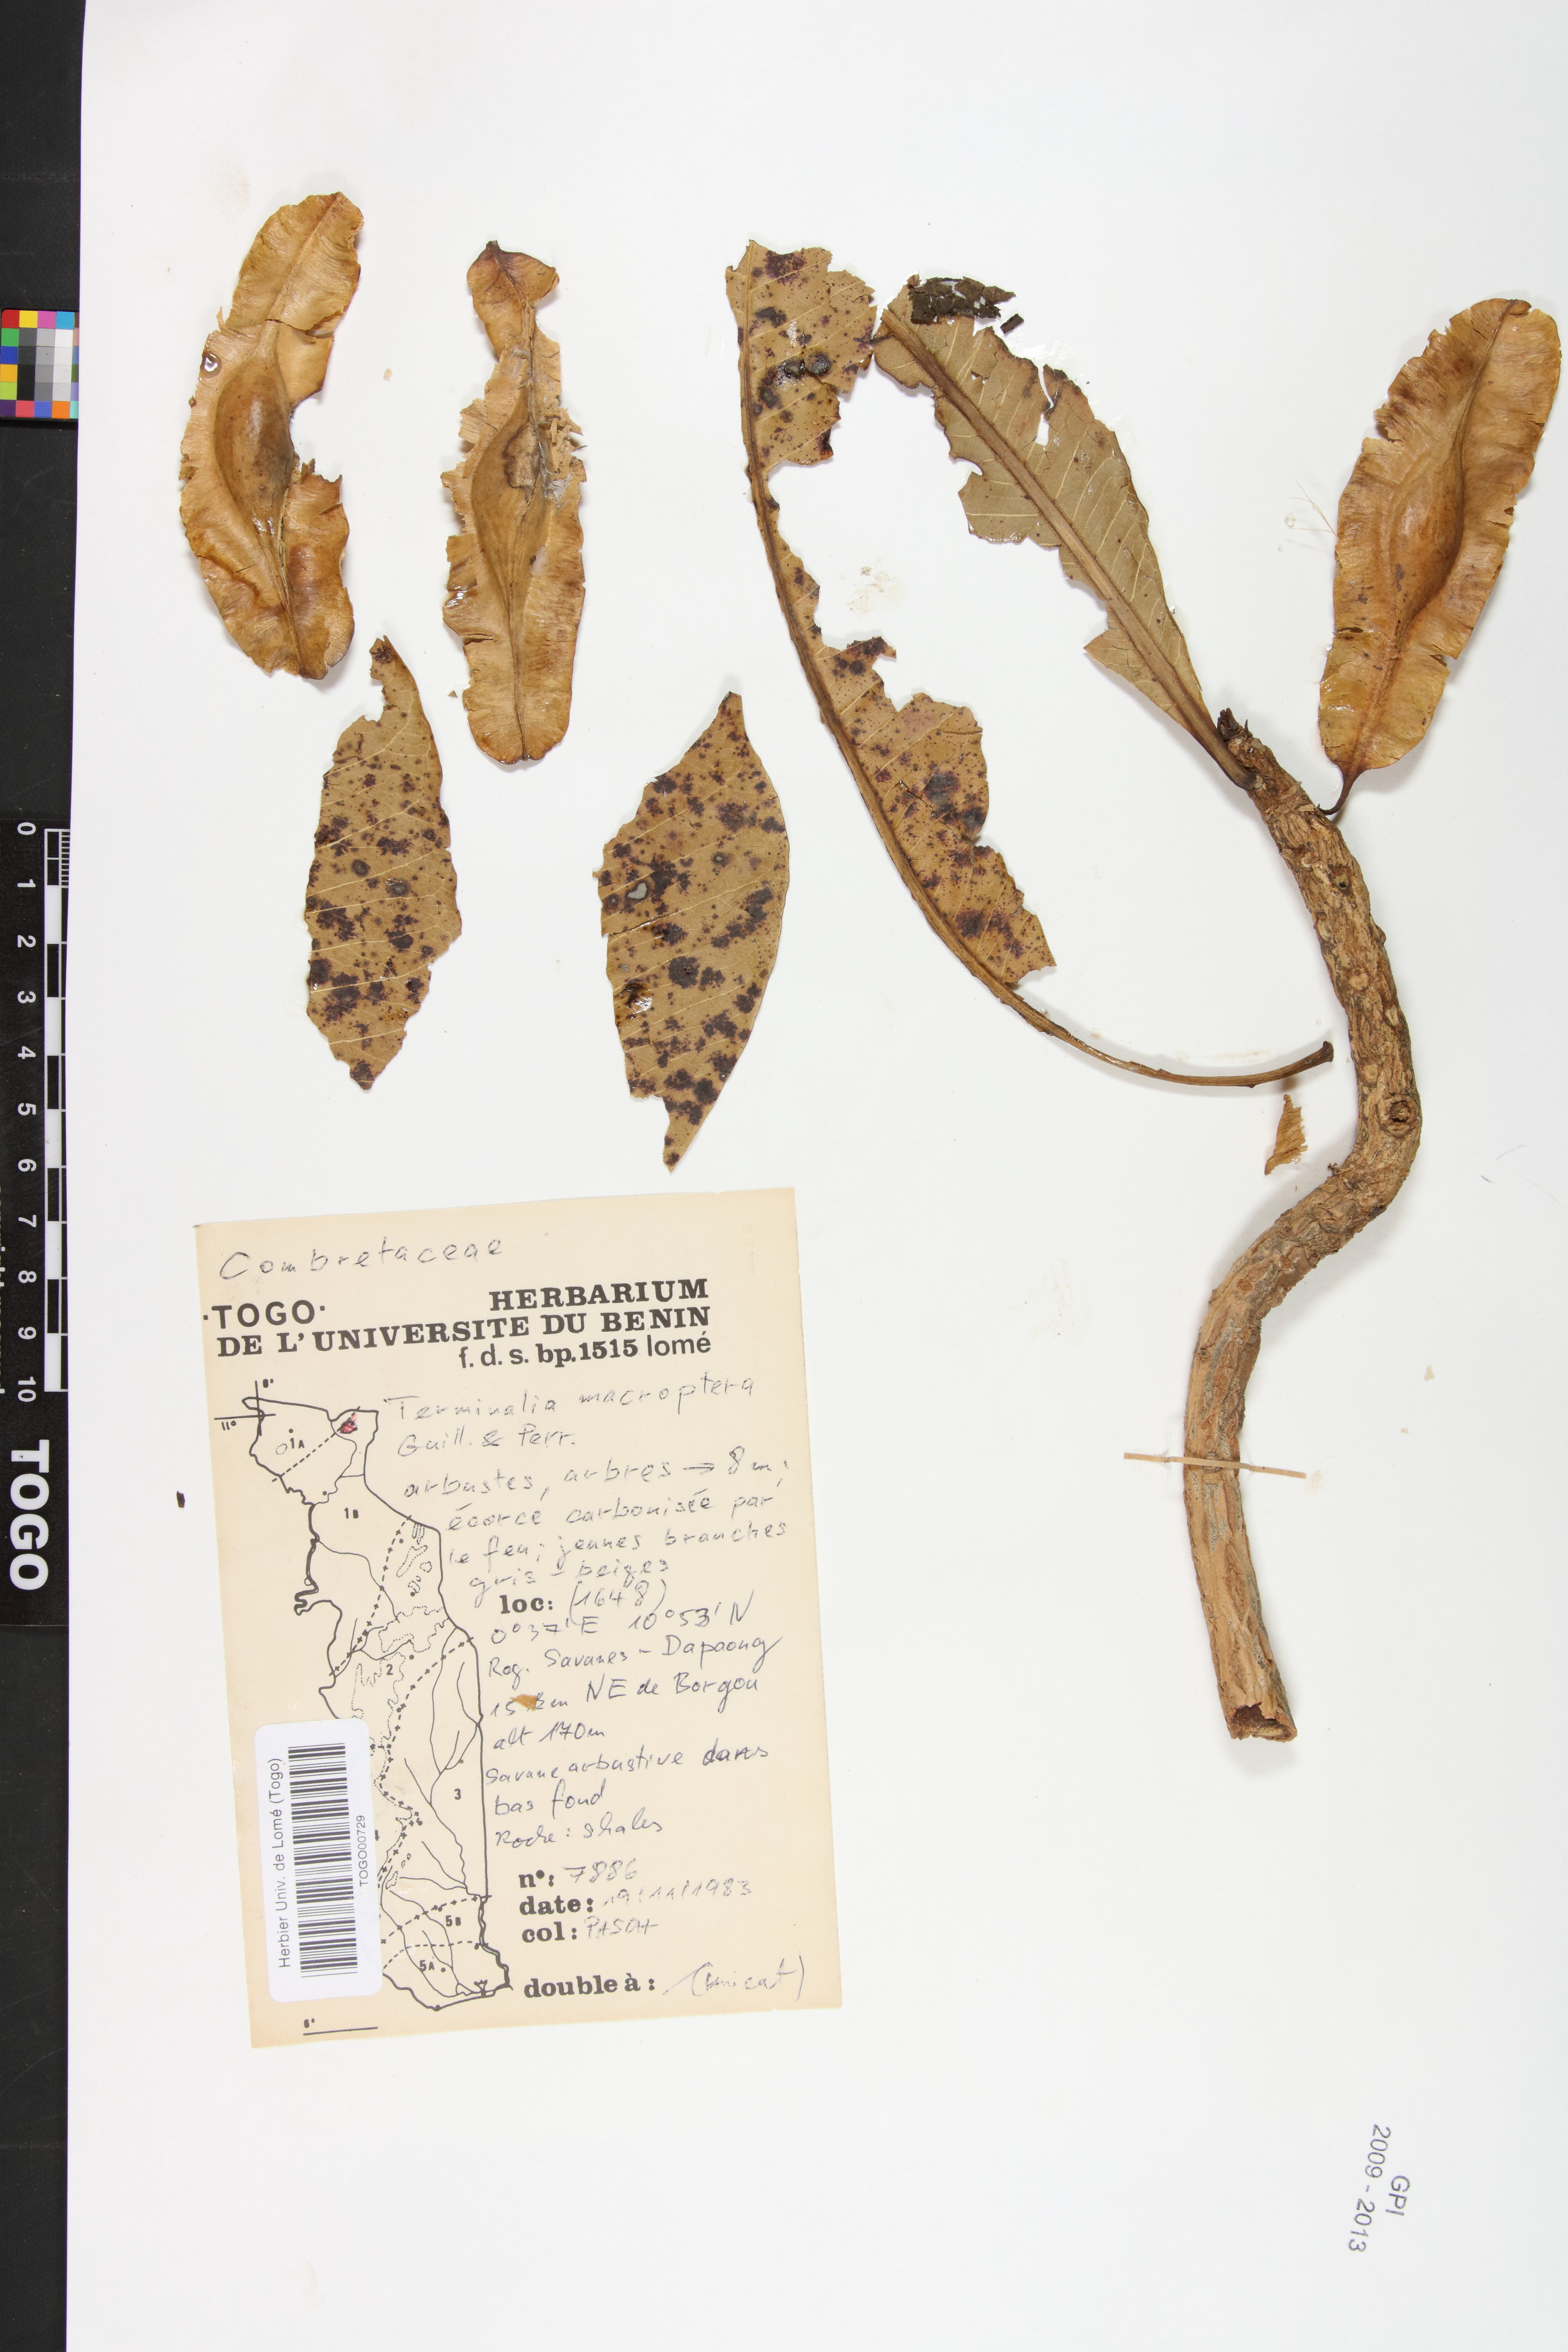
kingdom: Plantae
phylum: Tracheophyta
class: Magnoliopsida
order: Myrtales
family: Combretaceae
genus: Terminalia
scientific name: Terminalia laxiflora
